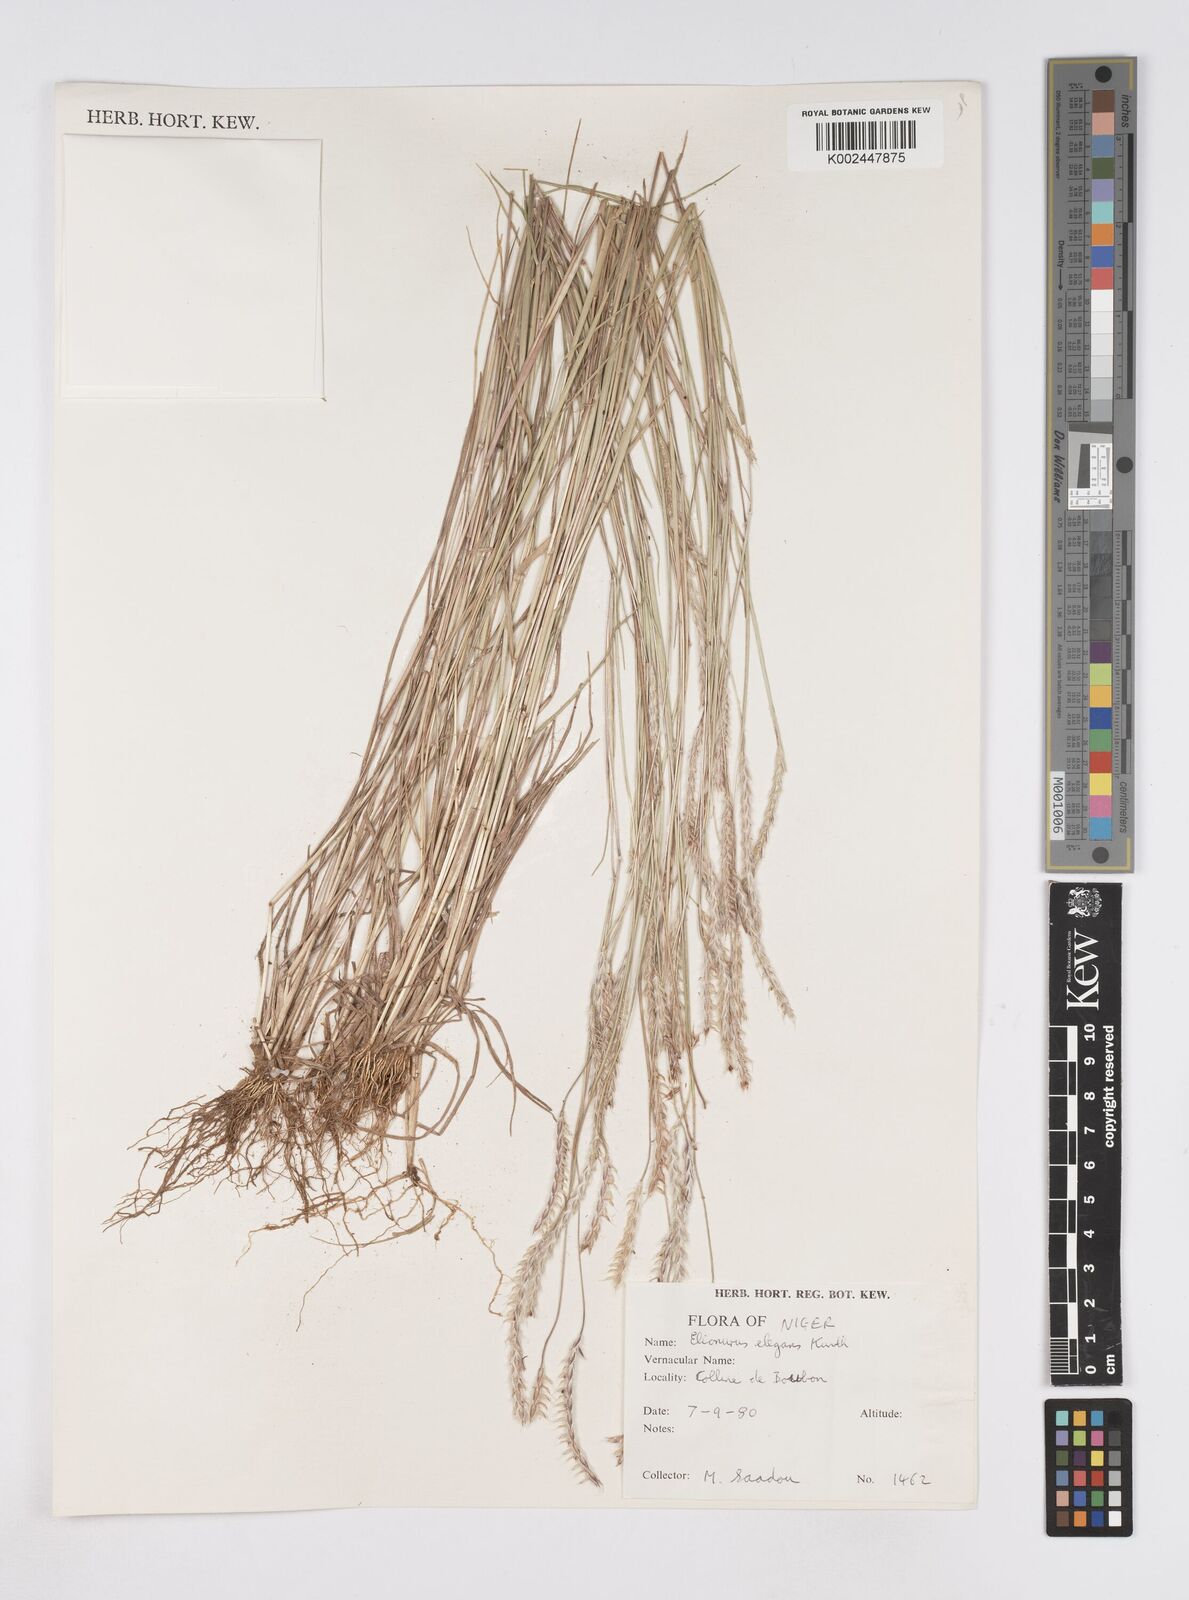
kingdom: Plantae
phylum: Tracheophyta
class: Liliopsida
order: Poales
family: Poaceae
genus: Elionurus
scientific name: Elionurus elegans
